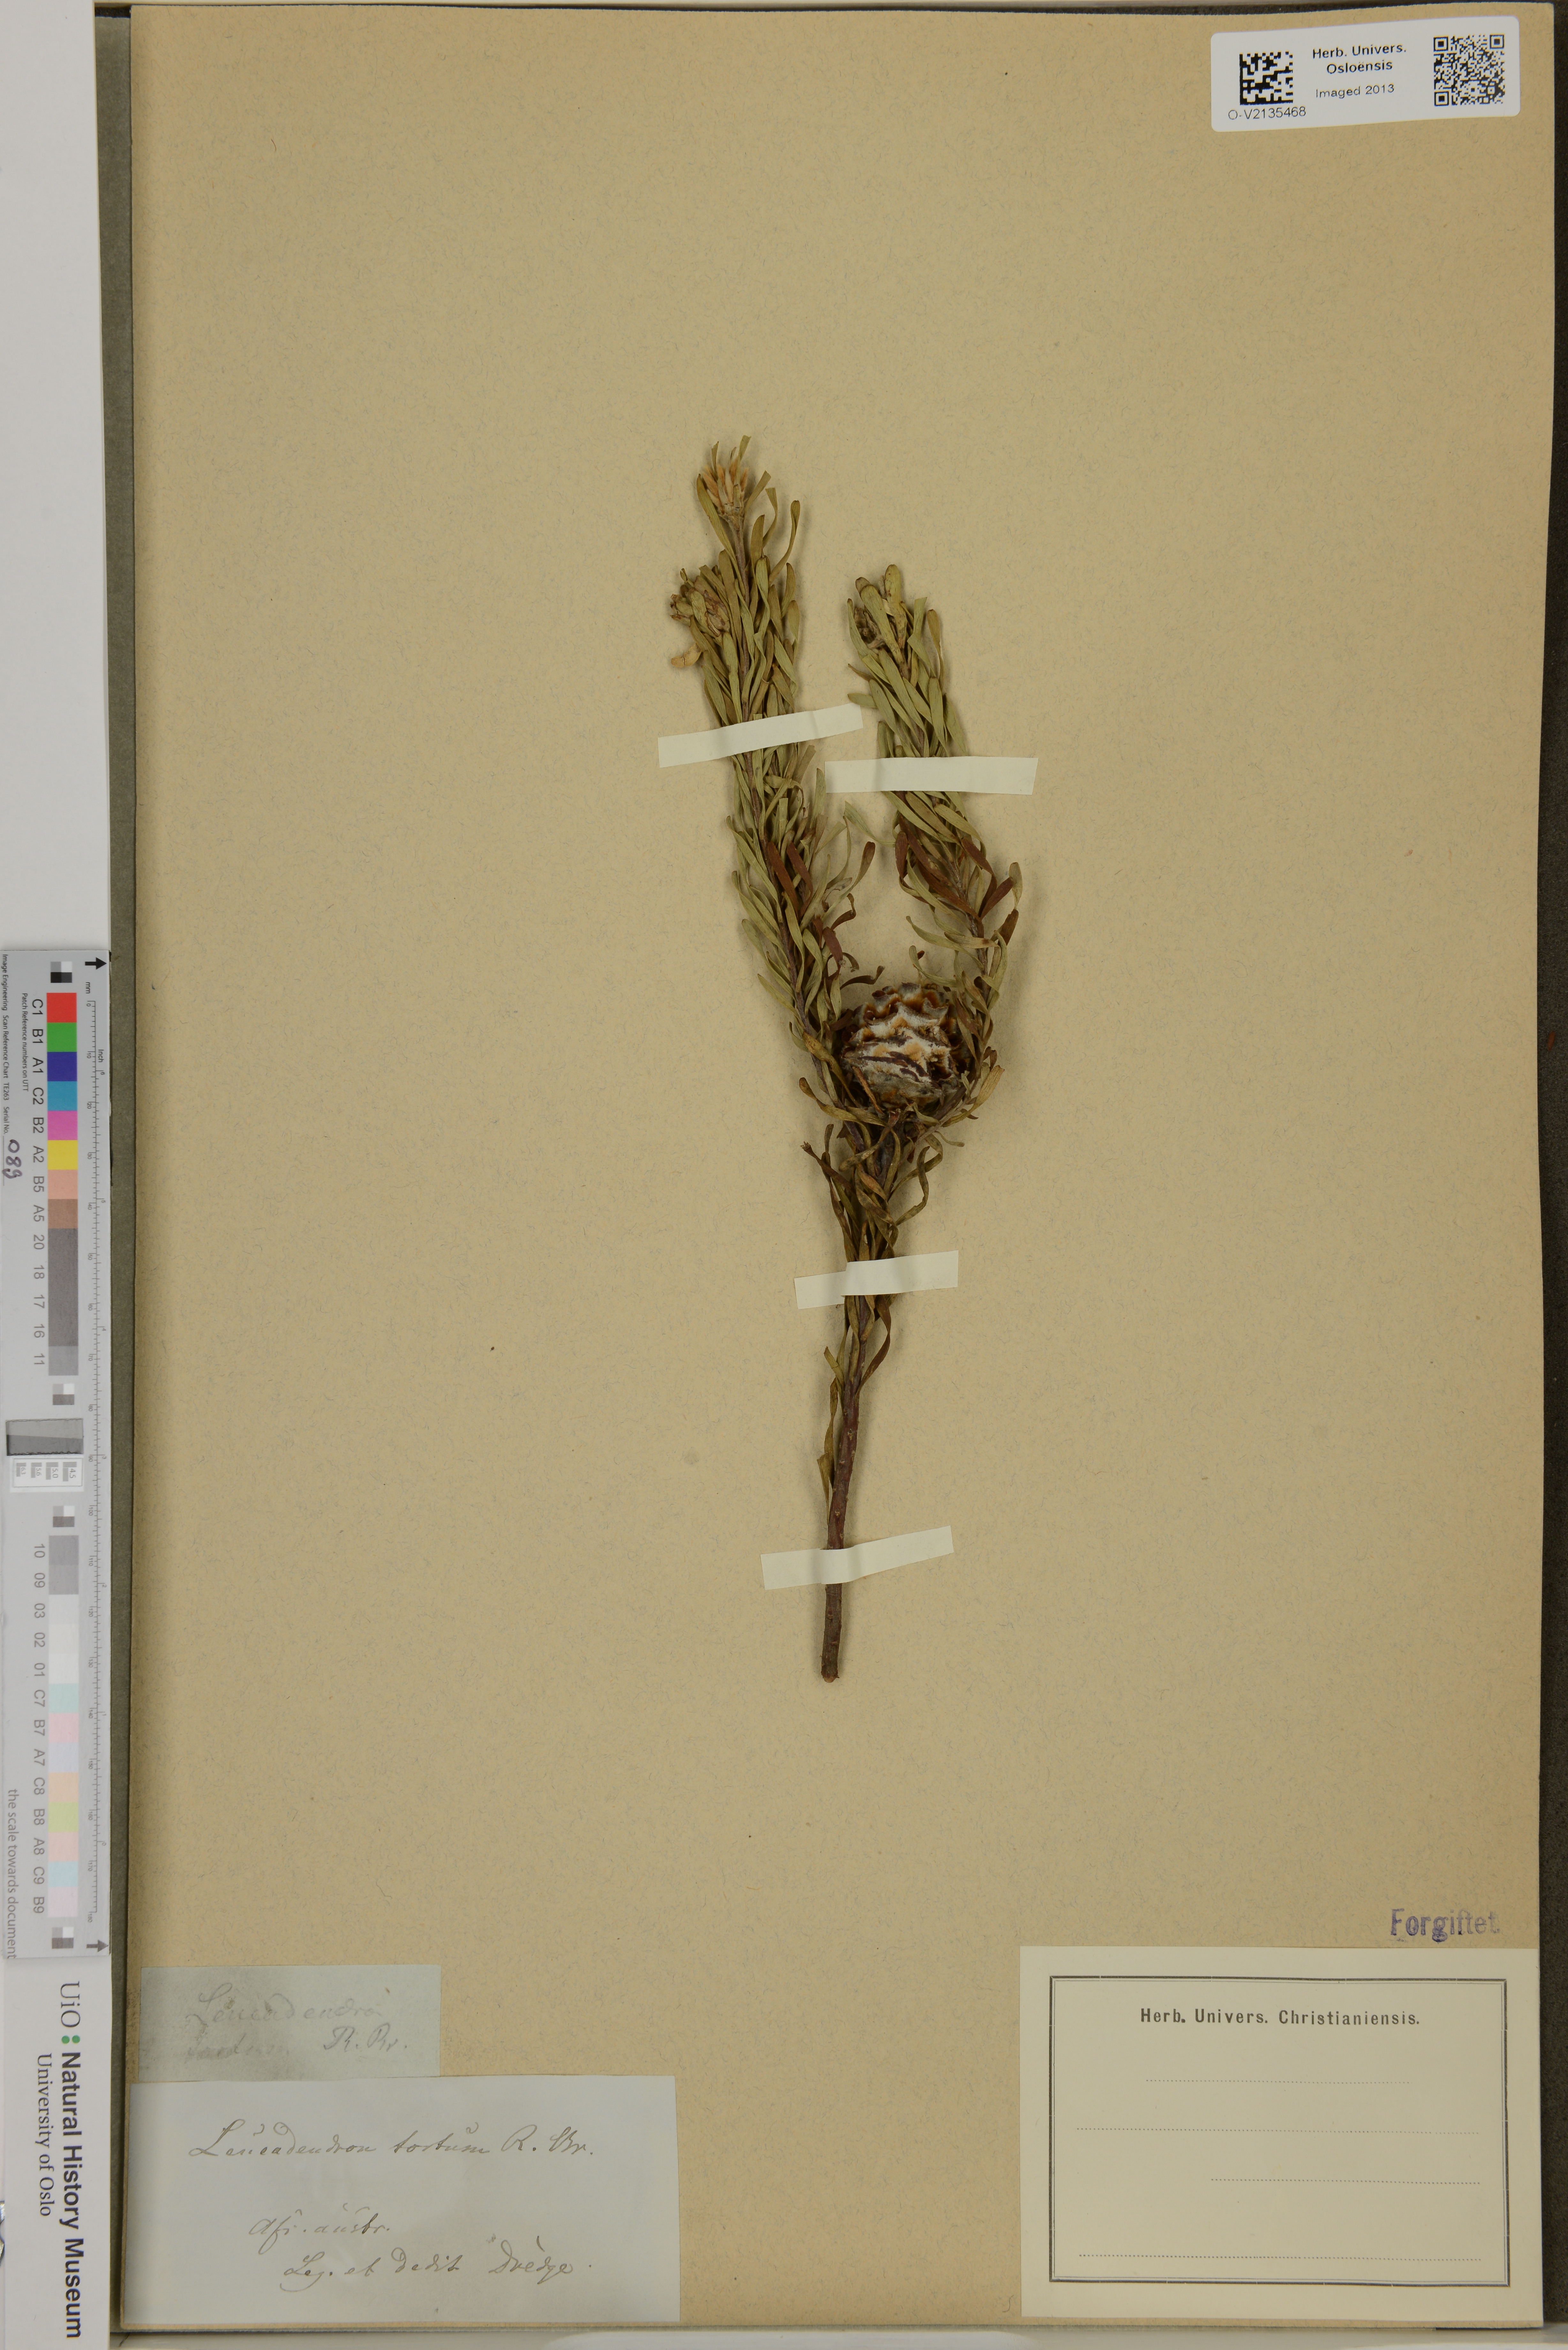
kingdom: Plantae
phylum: Tracheophyta
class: Magnoliopsida
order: Proteales
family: Proteaceae
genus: Leucadendron
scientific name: Leucadendron
